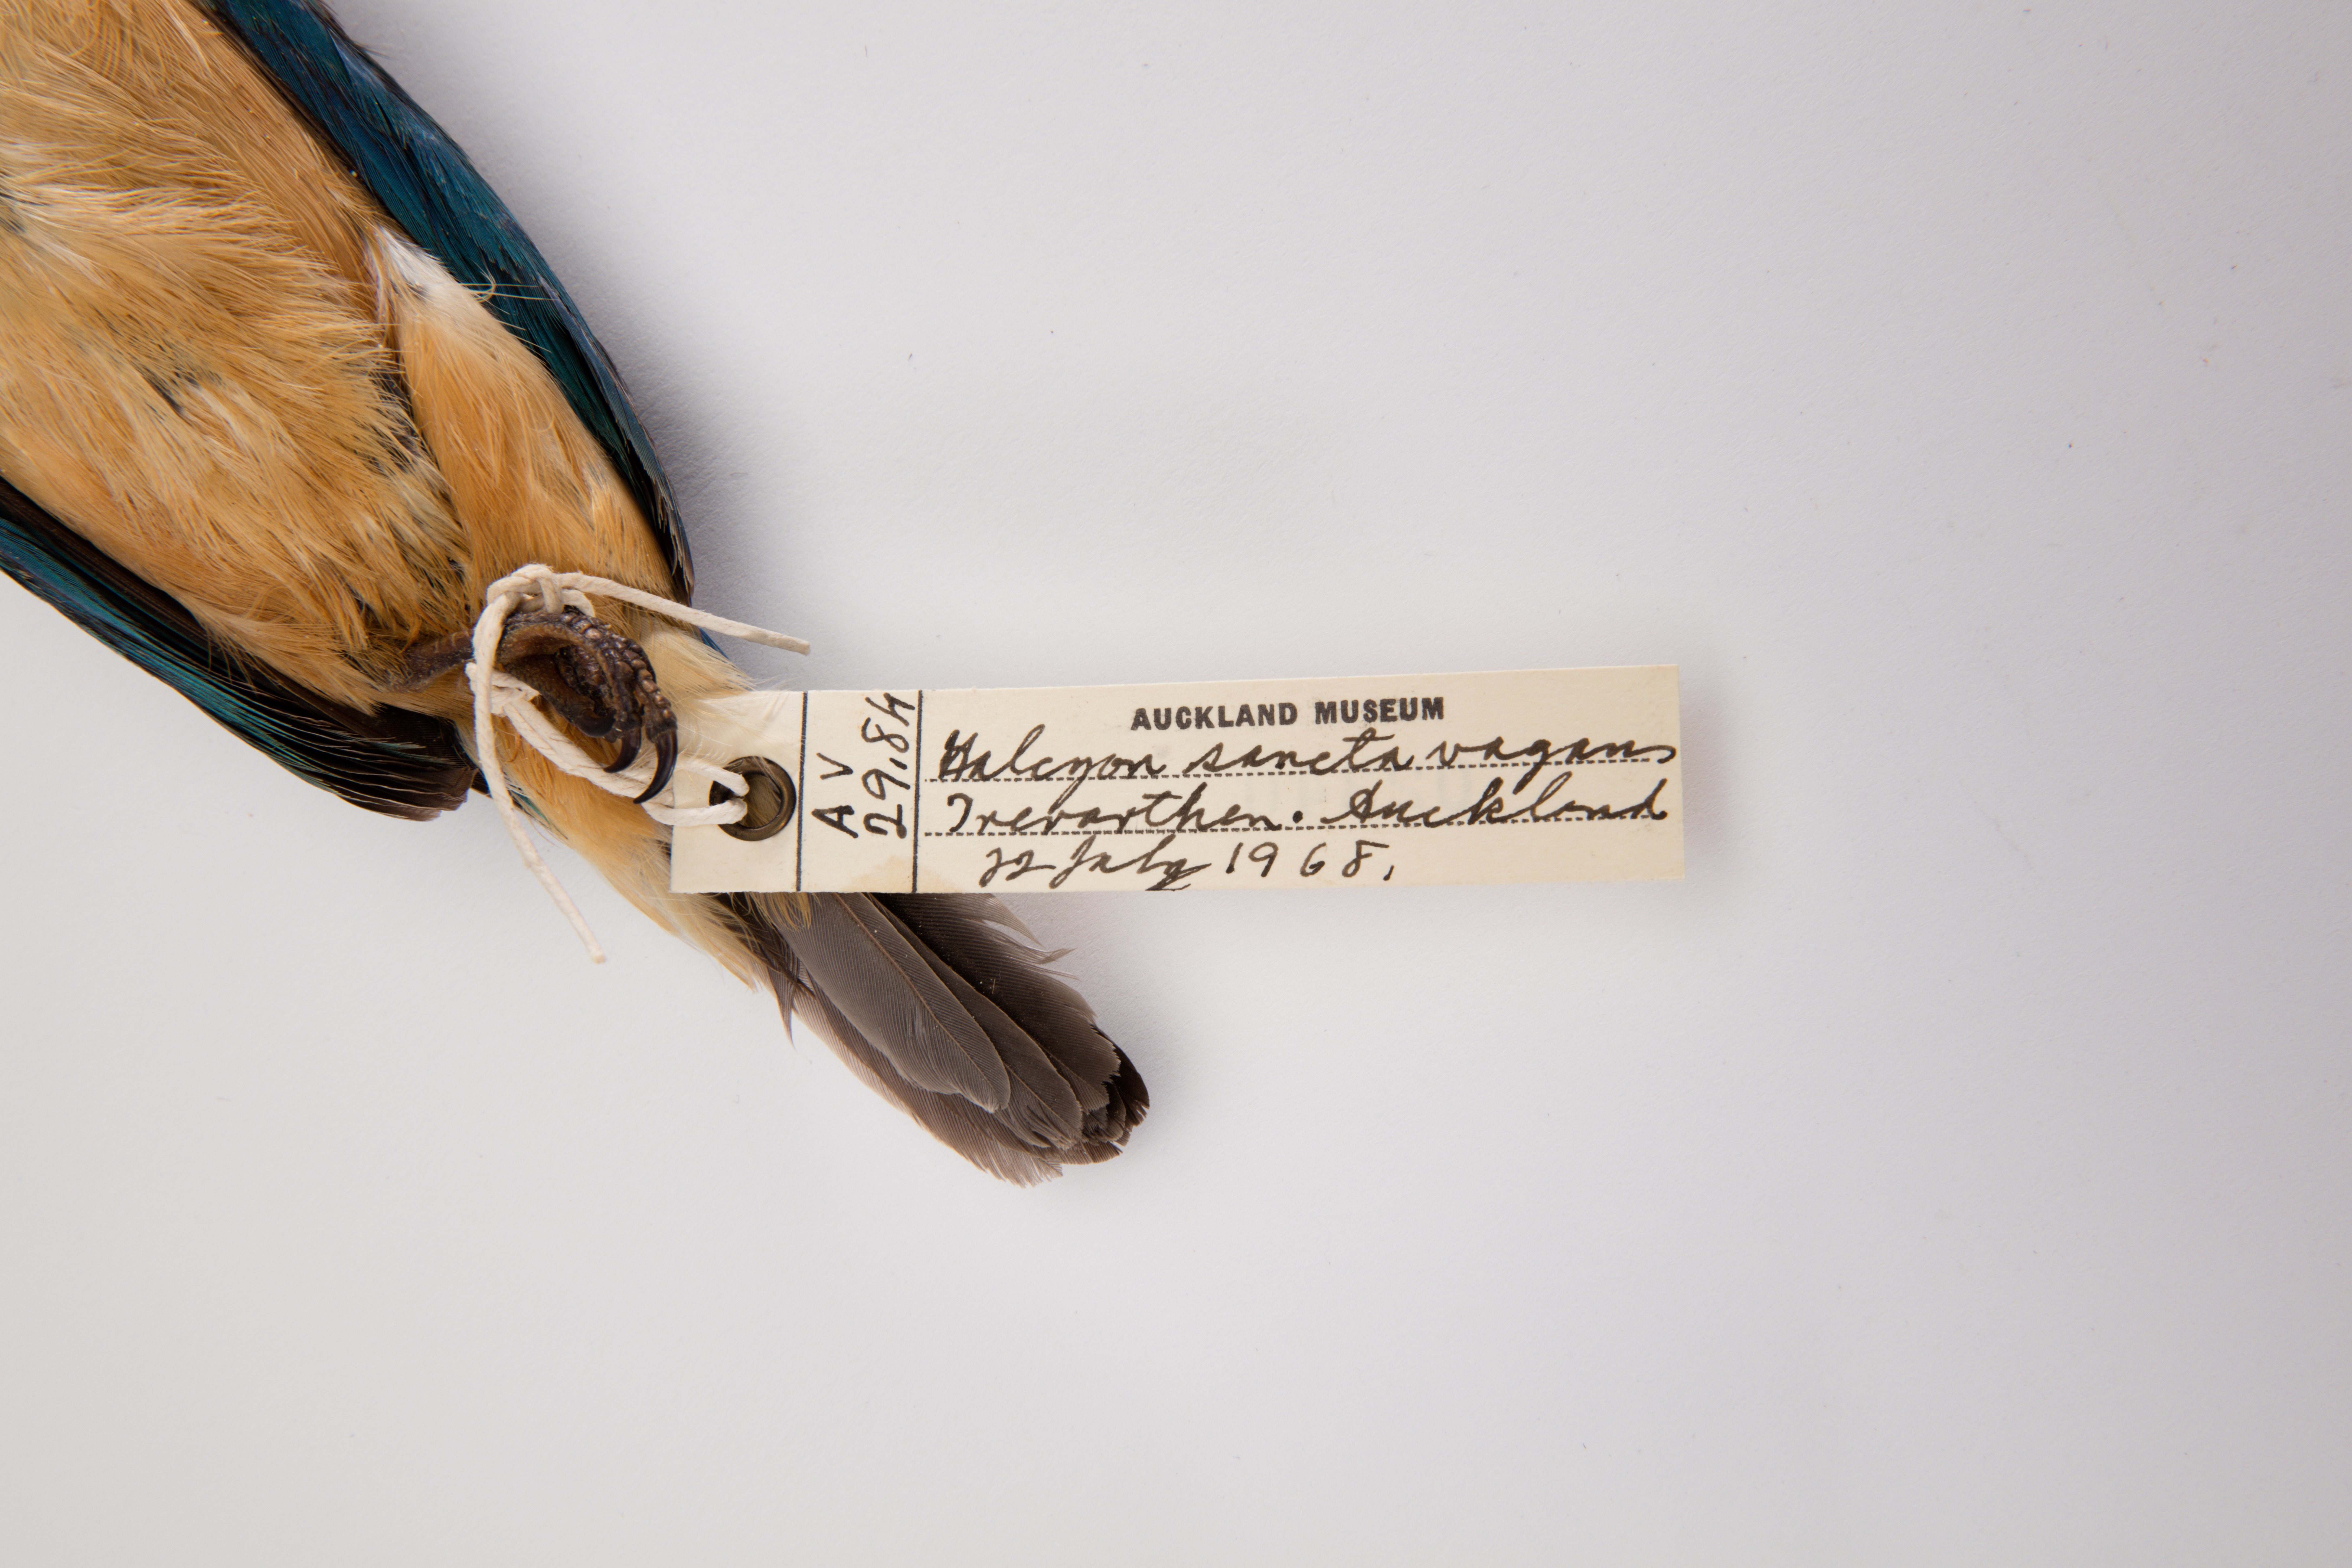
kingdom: Animalia
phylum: Chordata
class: Aves
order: Coraciiformes
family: Alcedinidae
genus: Todiramphus
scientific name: Todiramphus sanctus
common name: Sacred kingfisher
